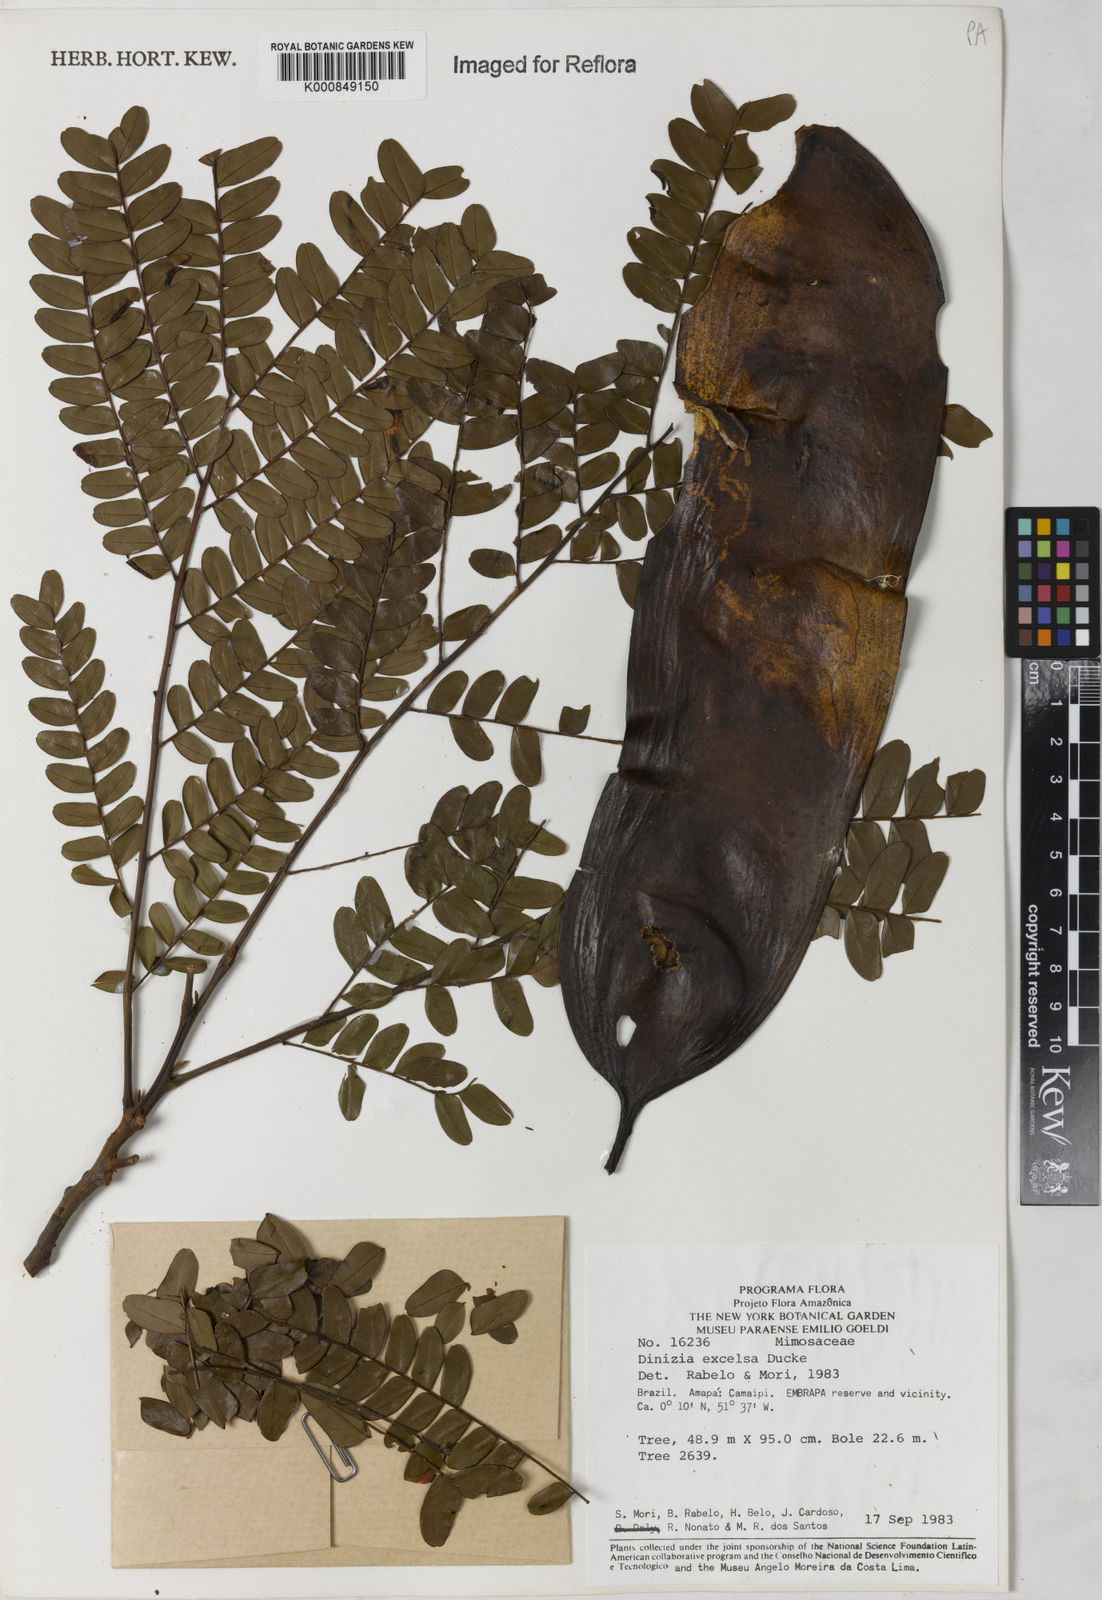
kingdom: Plantae
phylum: Tracheophyta
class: Magnoliopsida
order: Fabales
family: Fabaceae
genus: Dinizia
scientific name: Dinizia excelsa
